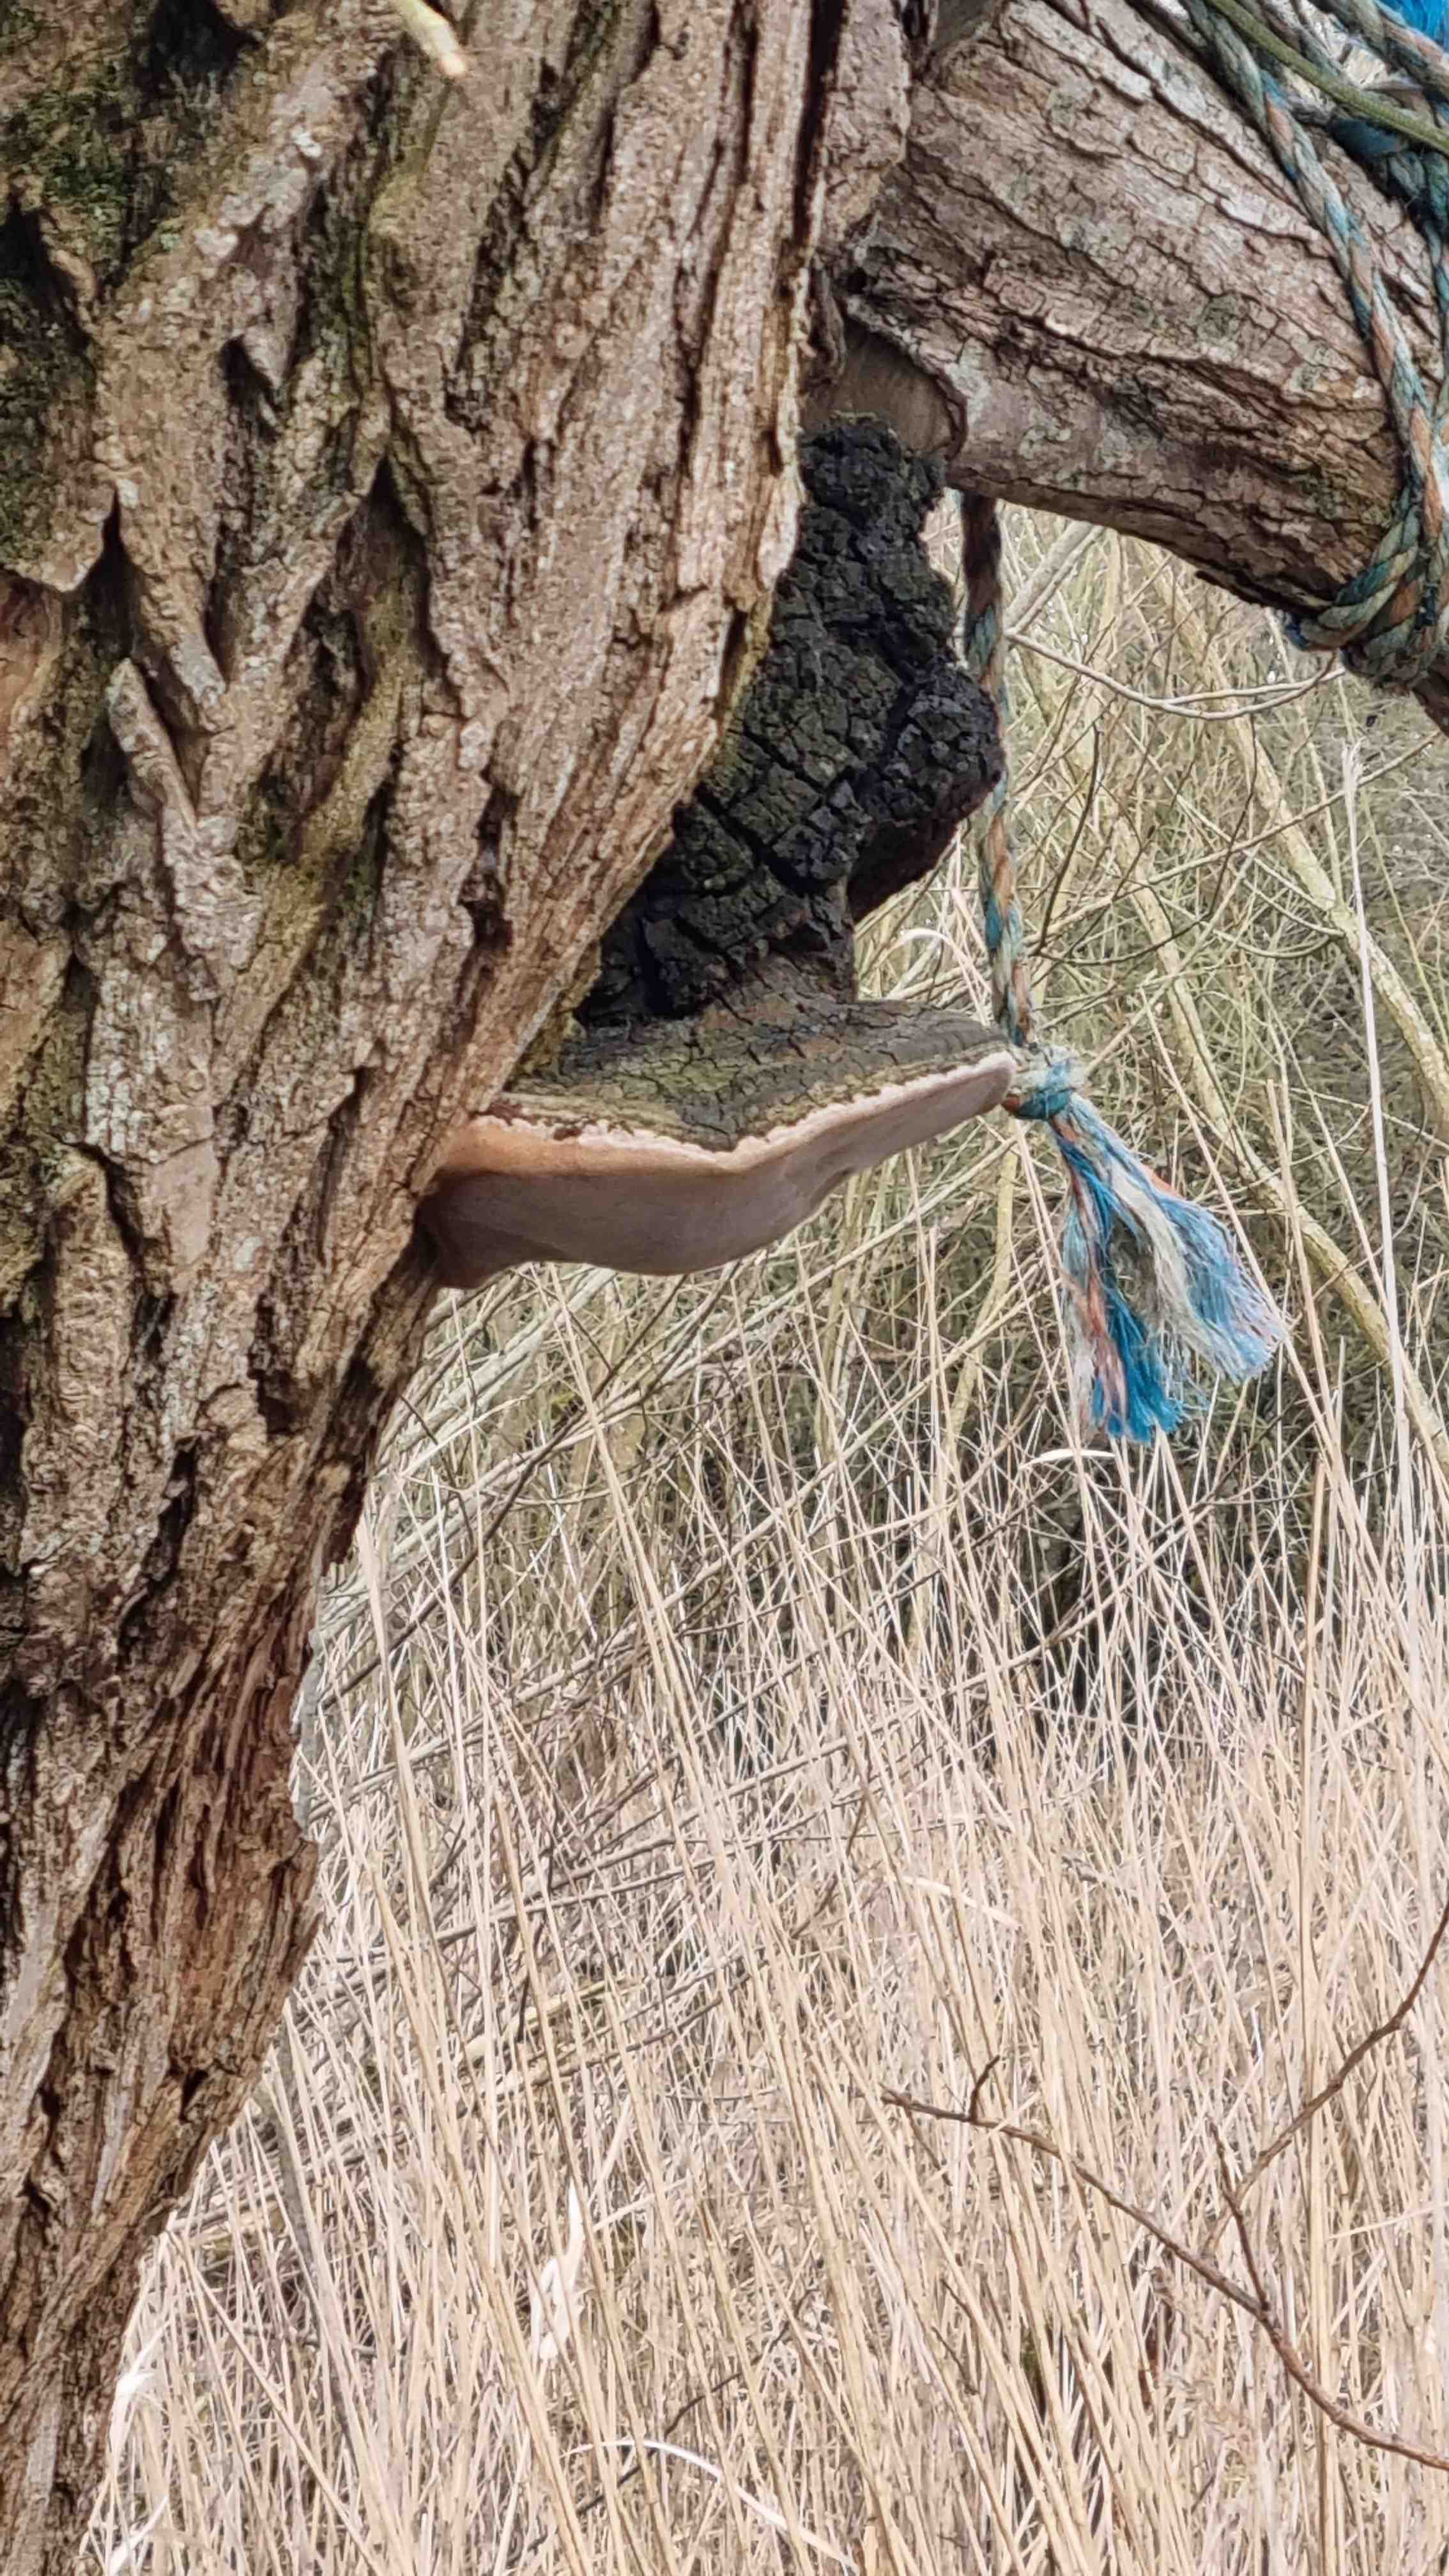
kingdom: Fungi
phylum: Basidiomycota
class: Agaricomycetes
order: Hymenochaetales
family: Hymenochaetaceae
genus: Phellinus
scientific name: Phellinus igniarius
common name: almindelig ildporesvamp
